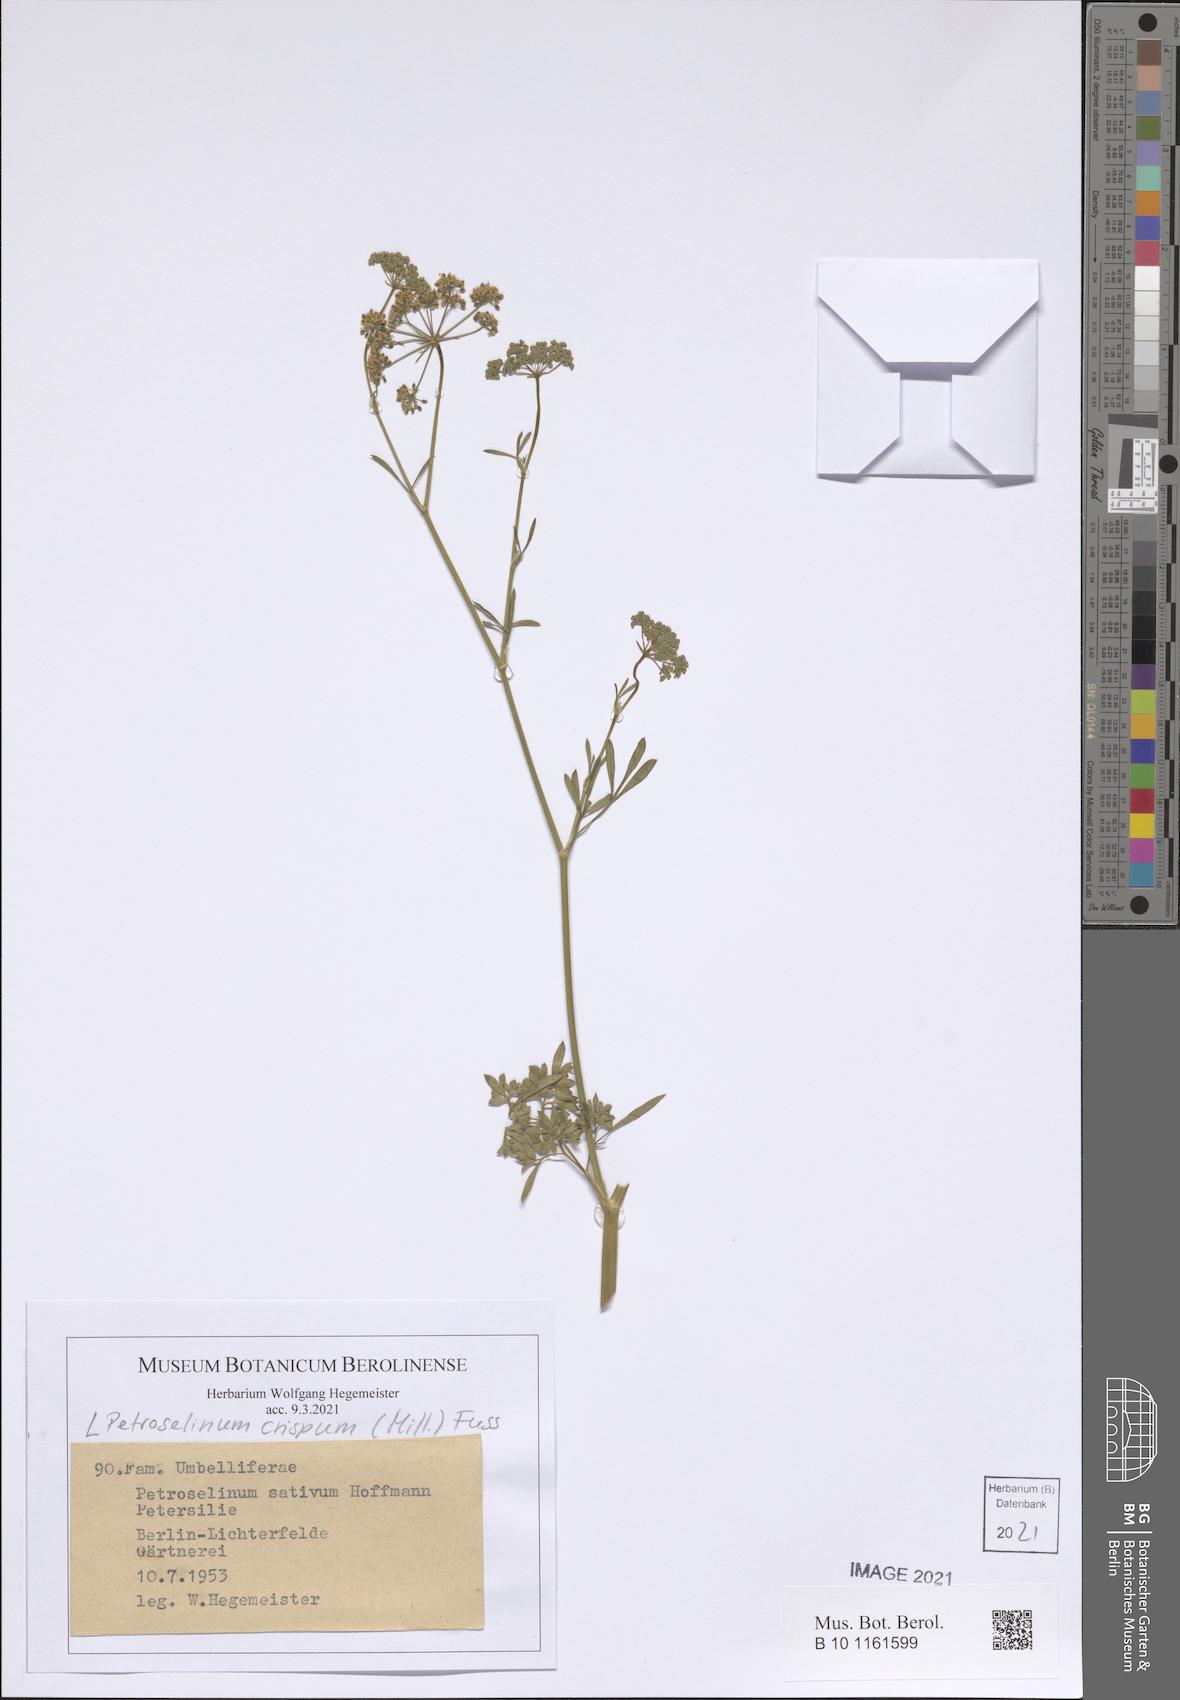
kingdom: Plantae
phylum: Tracheophyta
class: Magnoliopsida
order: Apiales
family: Apiaceae
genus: Petroselinum
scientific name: Petroselinum crispum
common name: Parsley
